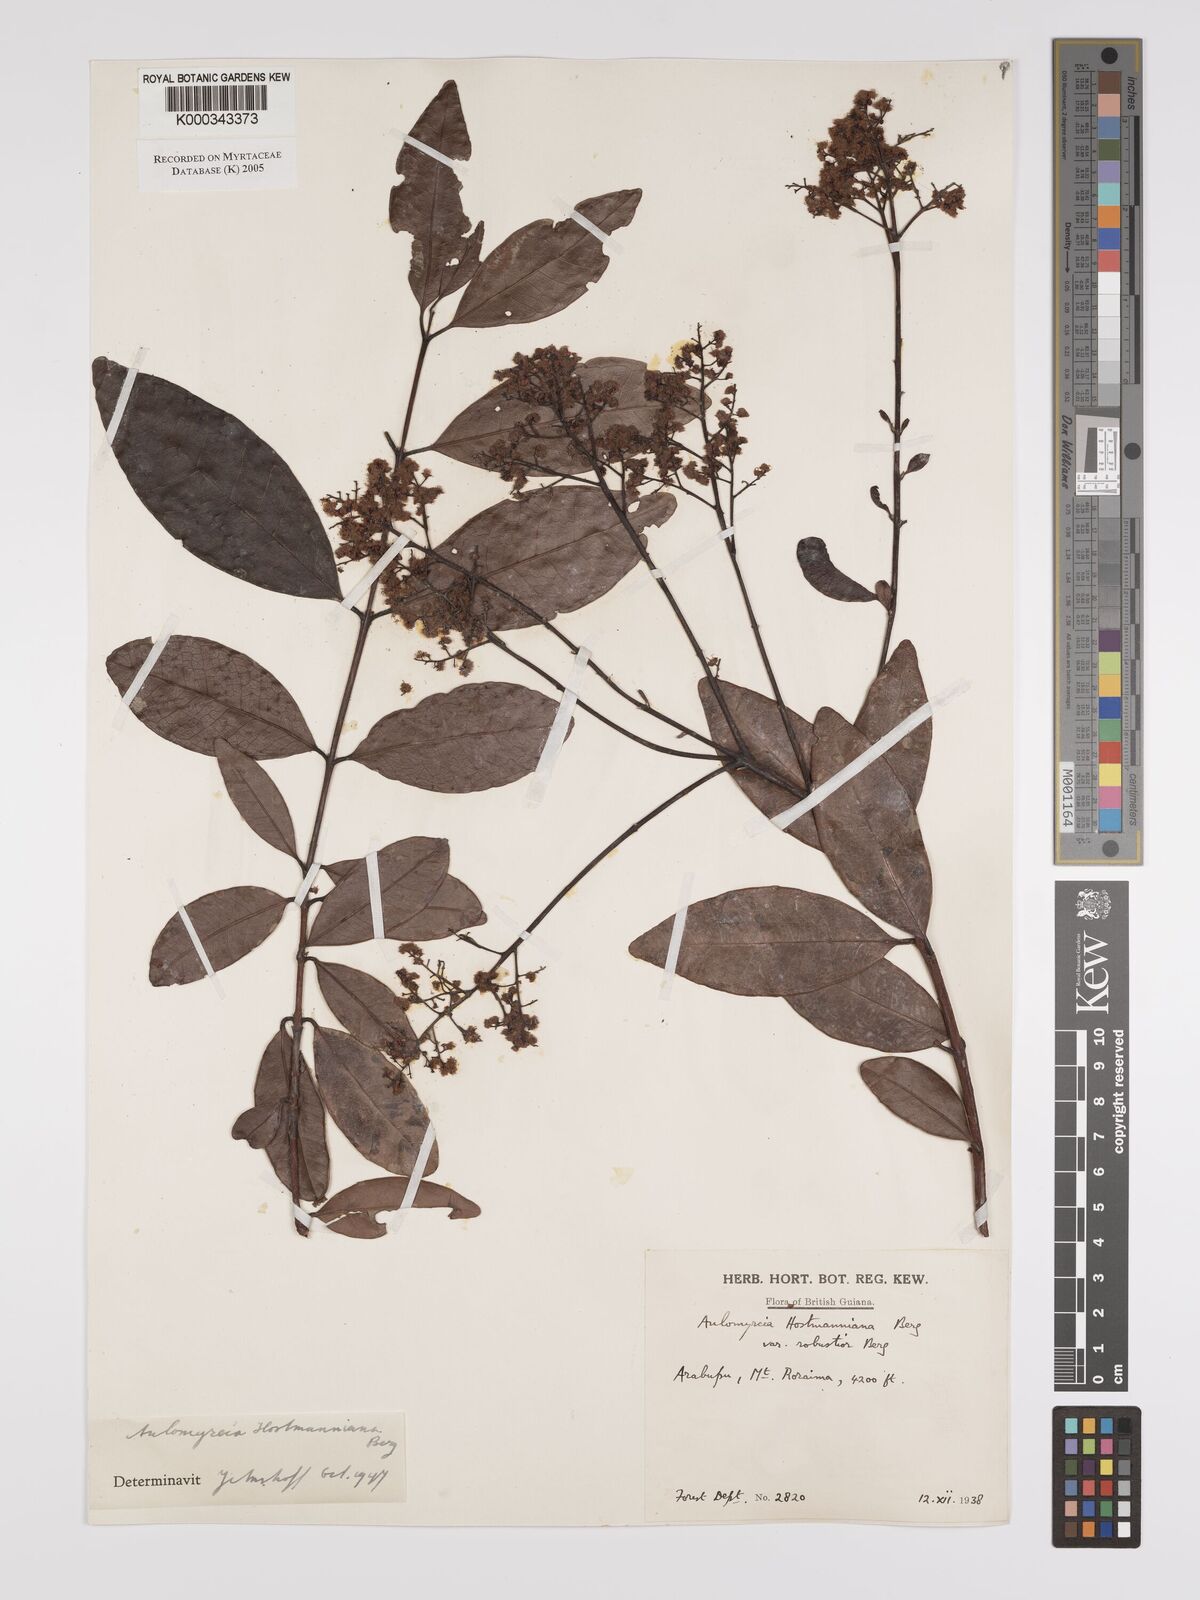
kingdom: Plantae
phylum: Tracheophyta
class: Magnoliopsida
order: Myrtales
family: Myrtaceae
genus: Myrcia
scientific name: Myrcia amazonica
